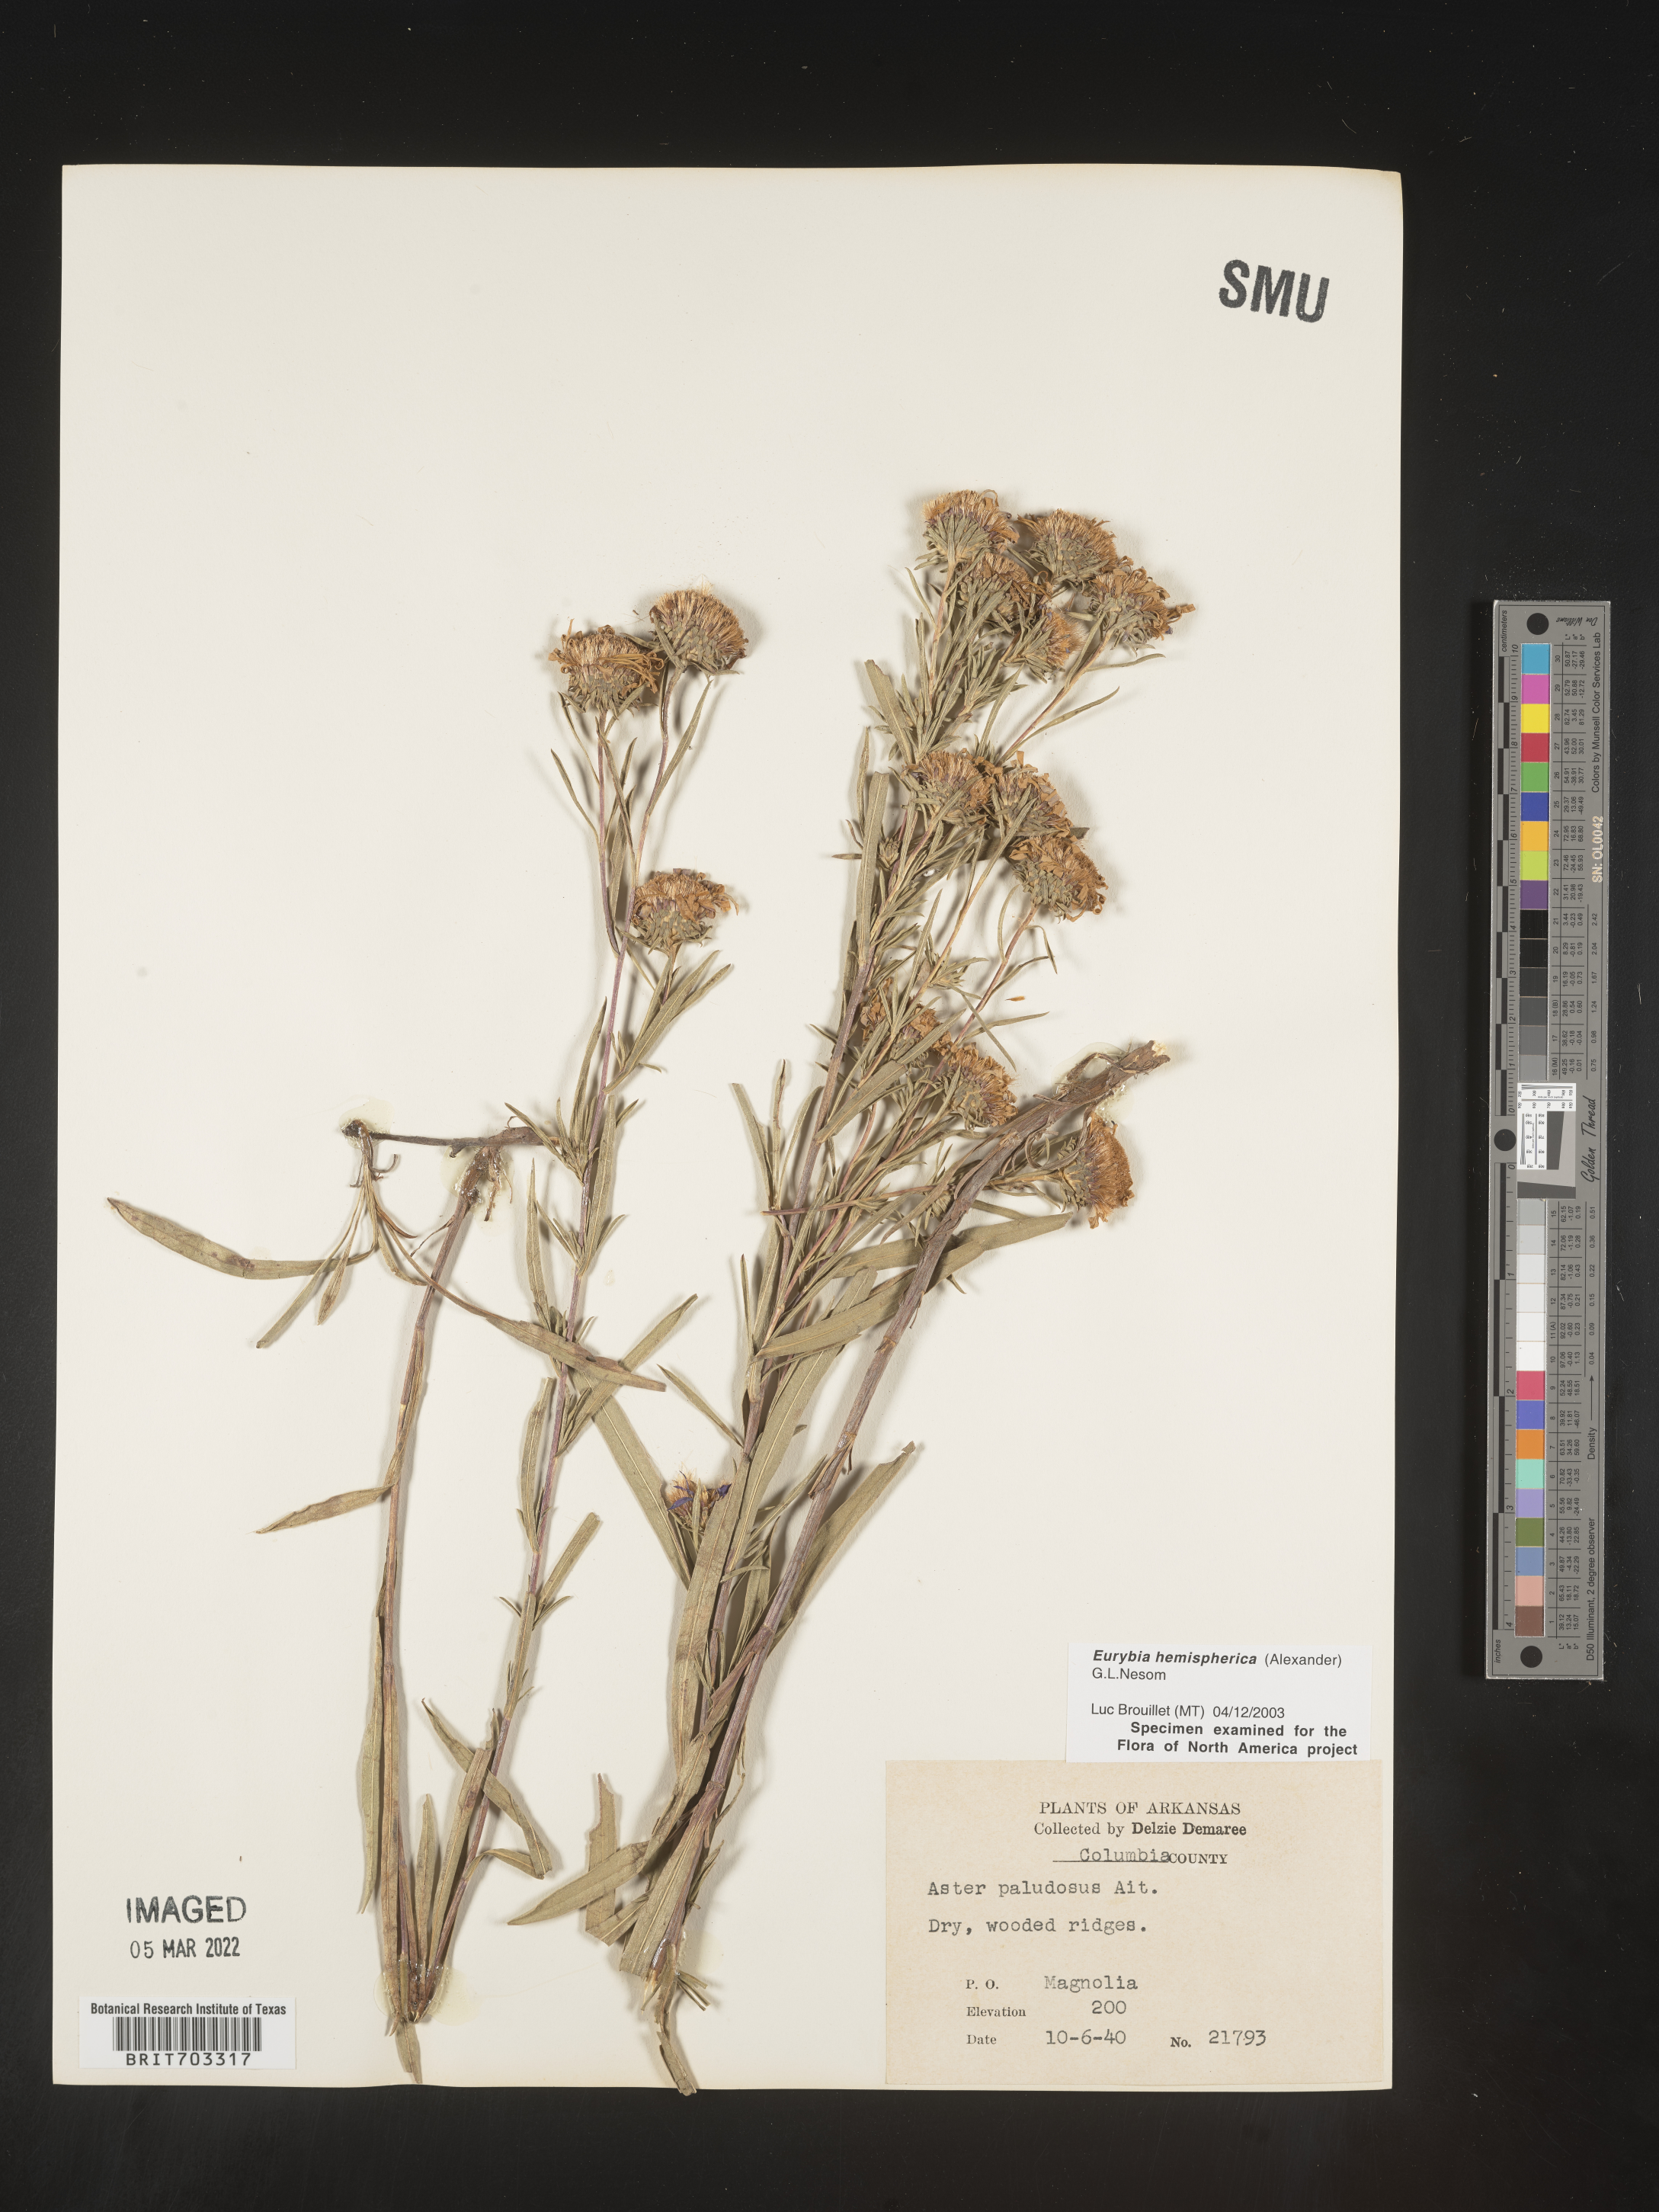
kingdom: Plantae
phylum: Tracheophyta
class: Magnoliopsida
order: Asterales
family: Asteraceae
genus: Eurybia
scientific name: Eurybia hemispherica
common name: Showy aster
